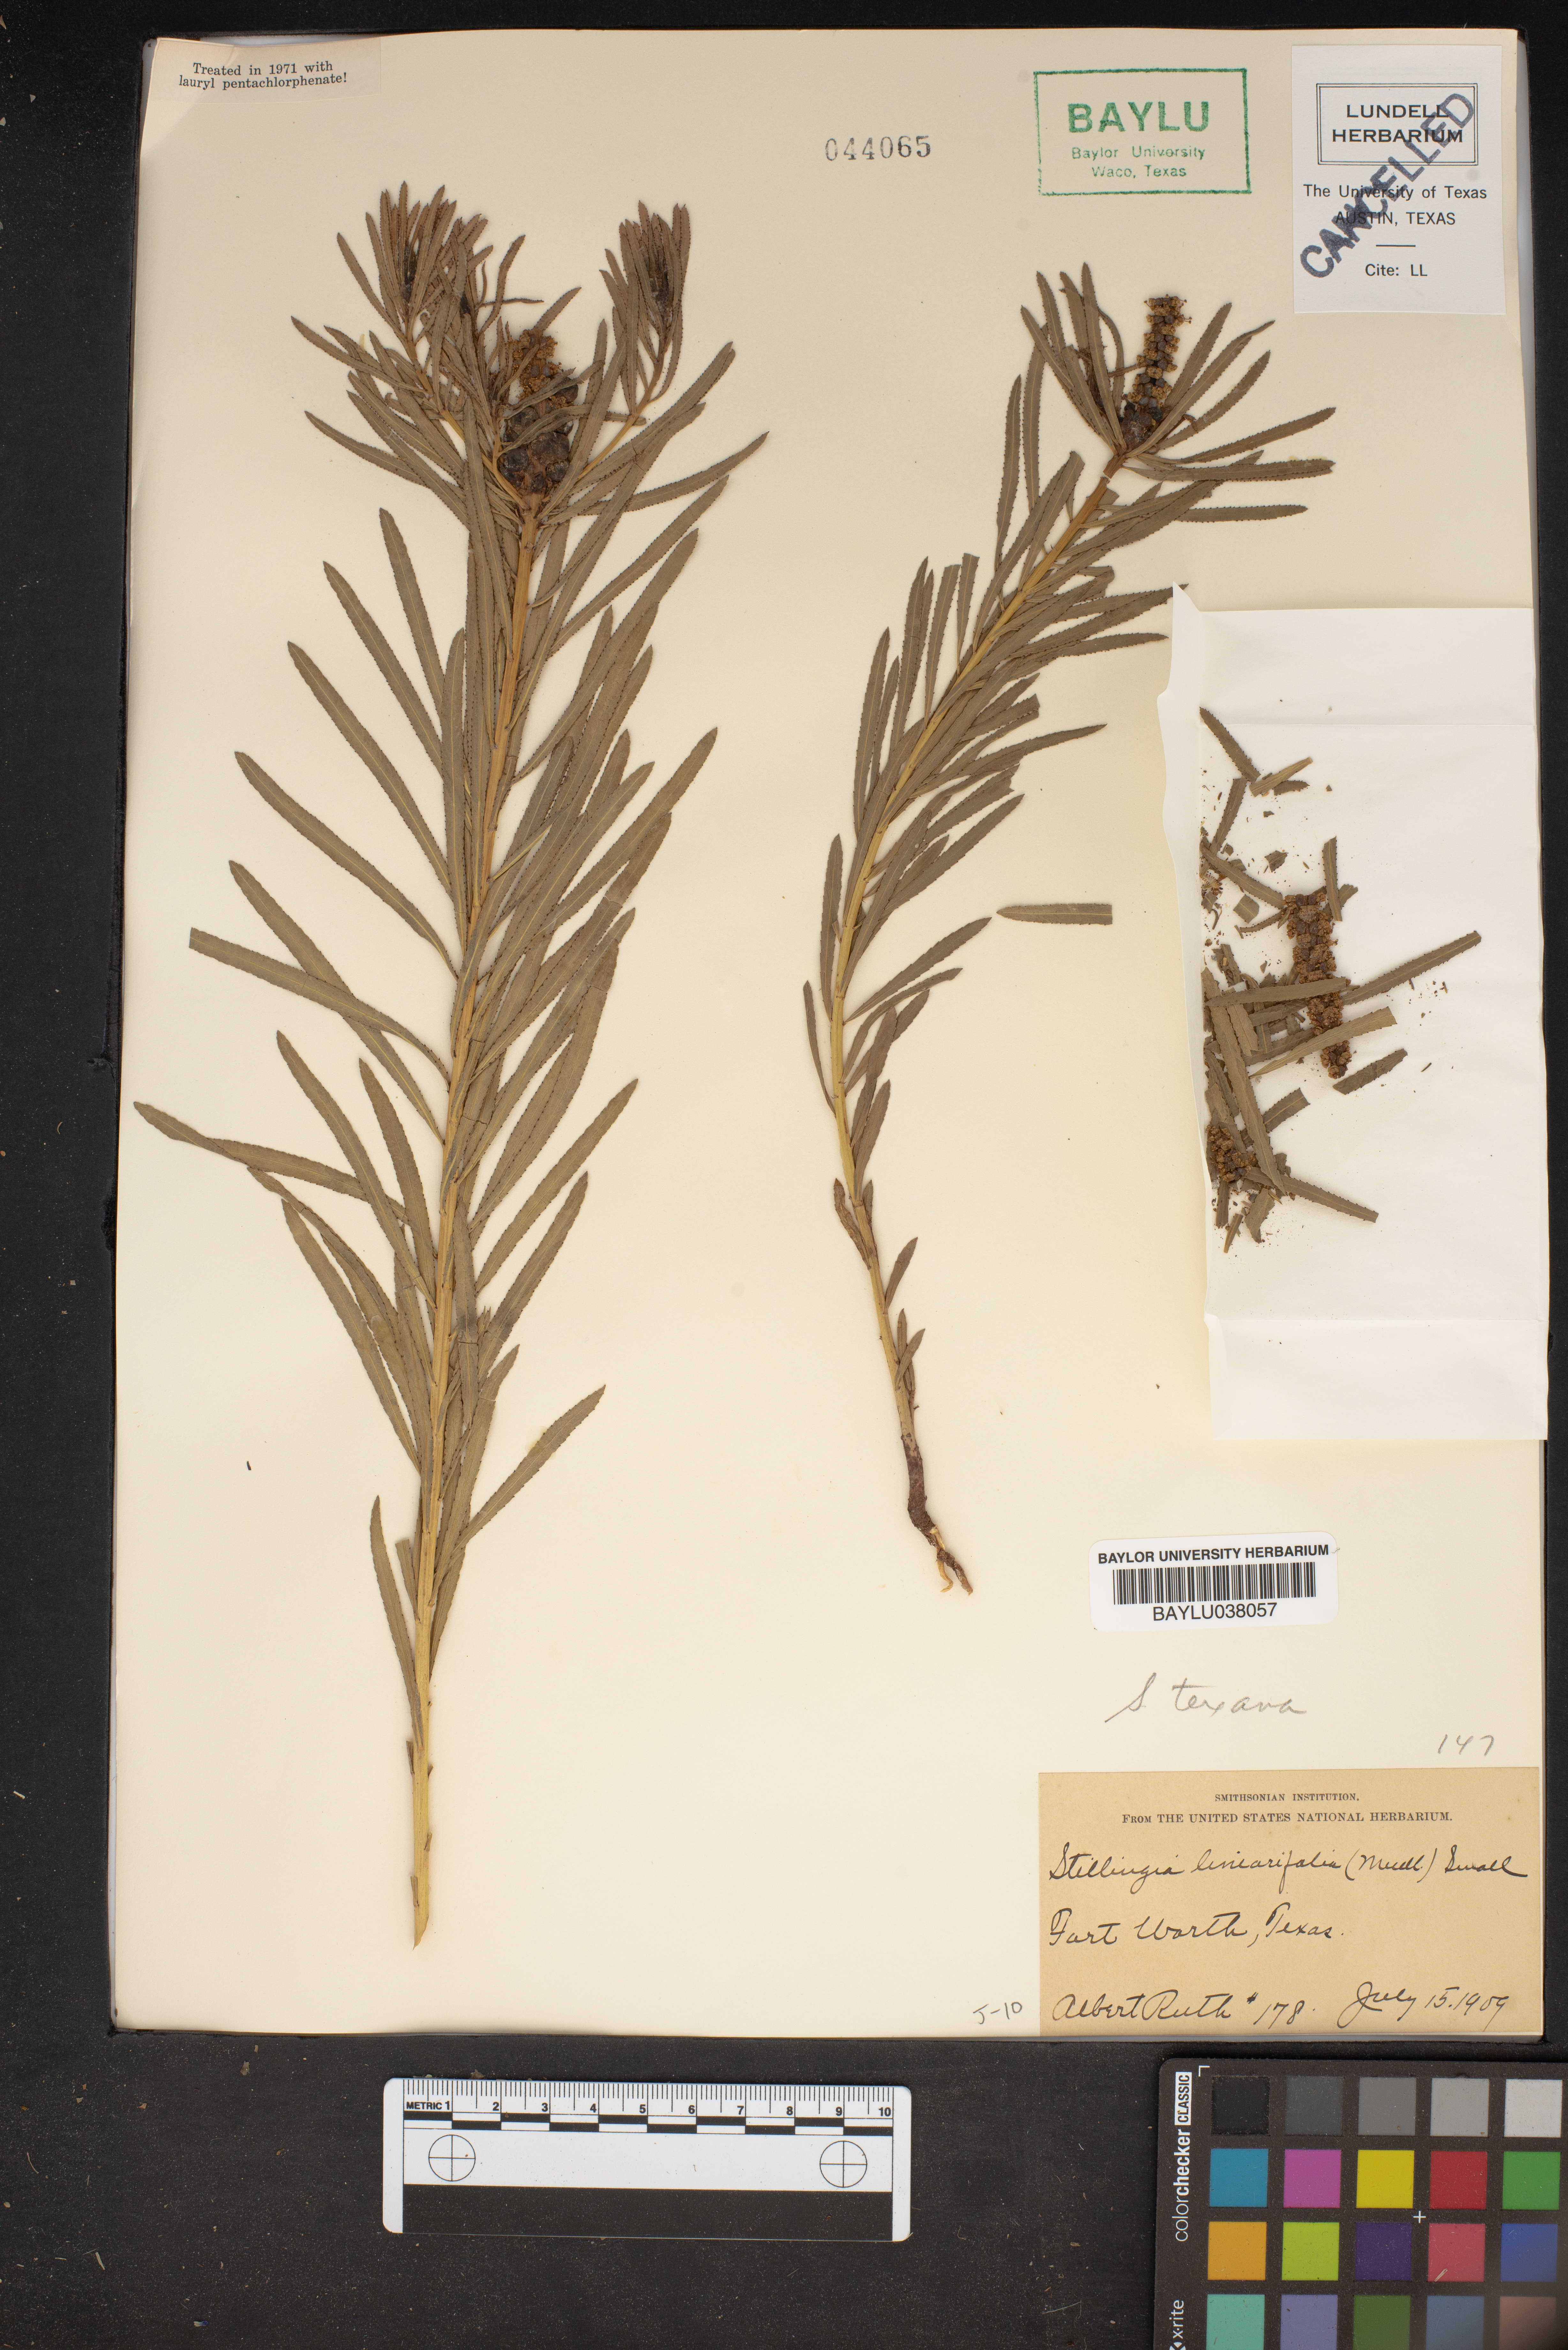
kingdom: Plantae
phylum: Tracheophyta
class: Magnoliopsida
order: Malpighiales
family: Euphorbiaceae
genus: Stillingia
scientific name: Stillingia linearifolia
